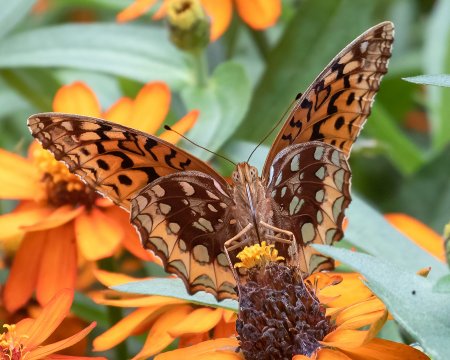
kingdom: Animalia
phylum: Arthropoda
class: Insecta
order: Lepidoptera
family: Nymphalidae
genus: Speyeria
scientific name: Speyeria cybele
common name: Great Spangled Fritillary
